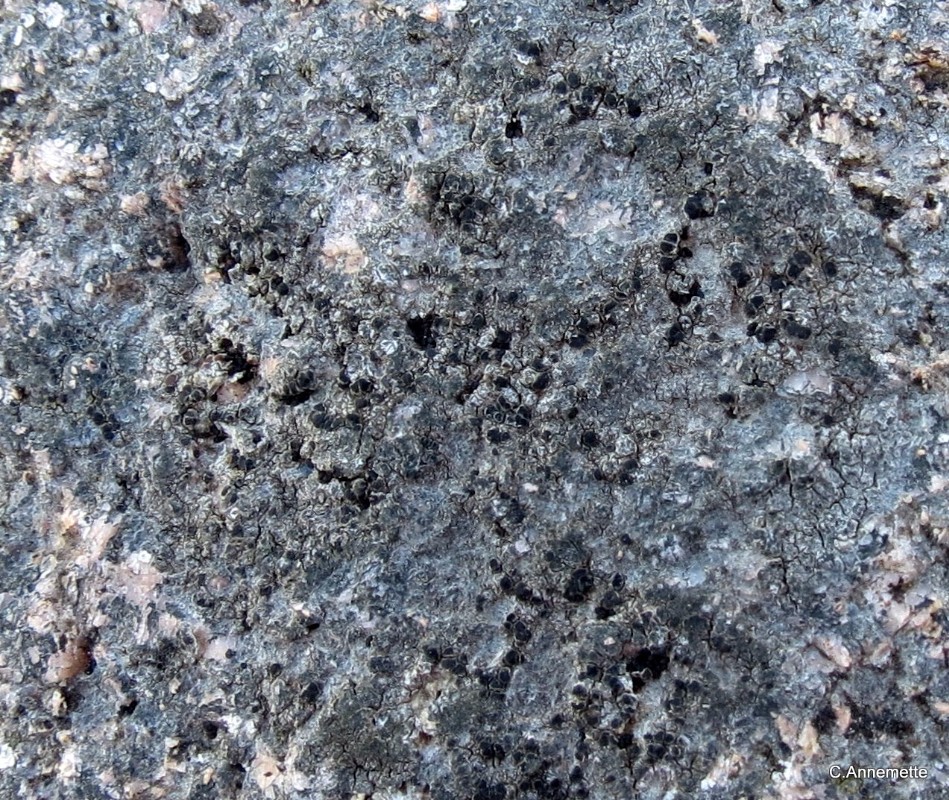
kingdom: Fungi
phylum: Ascomycota
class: Lecanoromycetes
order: Lecanorales
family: Lecanoraceae
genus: Lecanora
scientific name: Lecanora helicopis
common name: salt-kantskivelav
